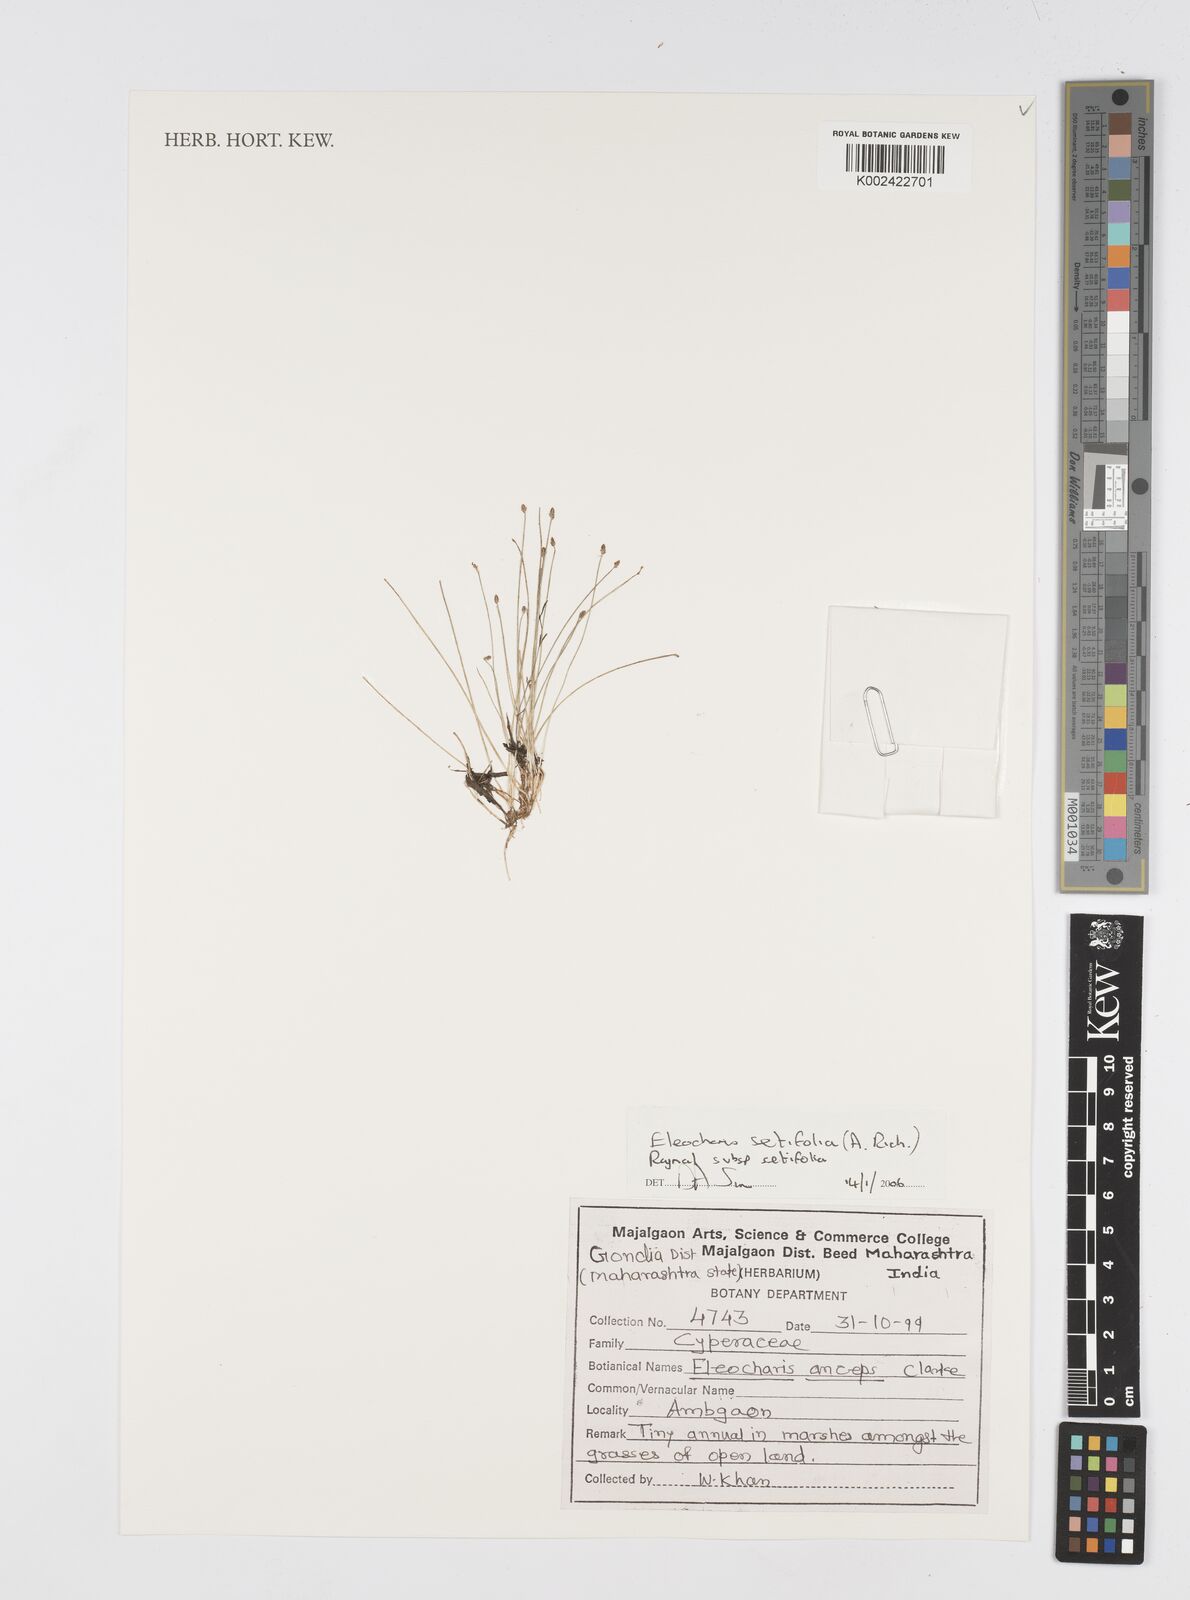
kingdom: Plantae
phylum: Tracheophyta
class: Liliopsida
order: Poales
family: Cyperaceae
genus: Eleocharis
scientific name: Eleocharis setifolia
